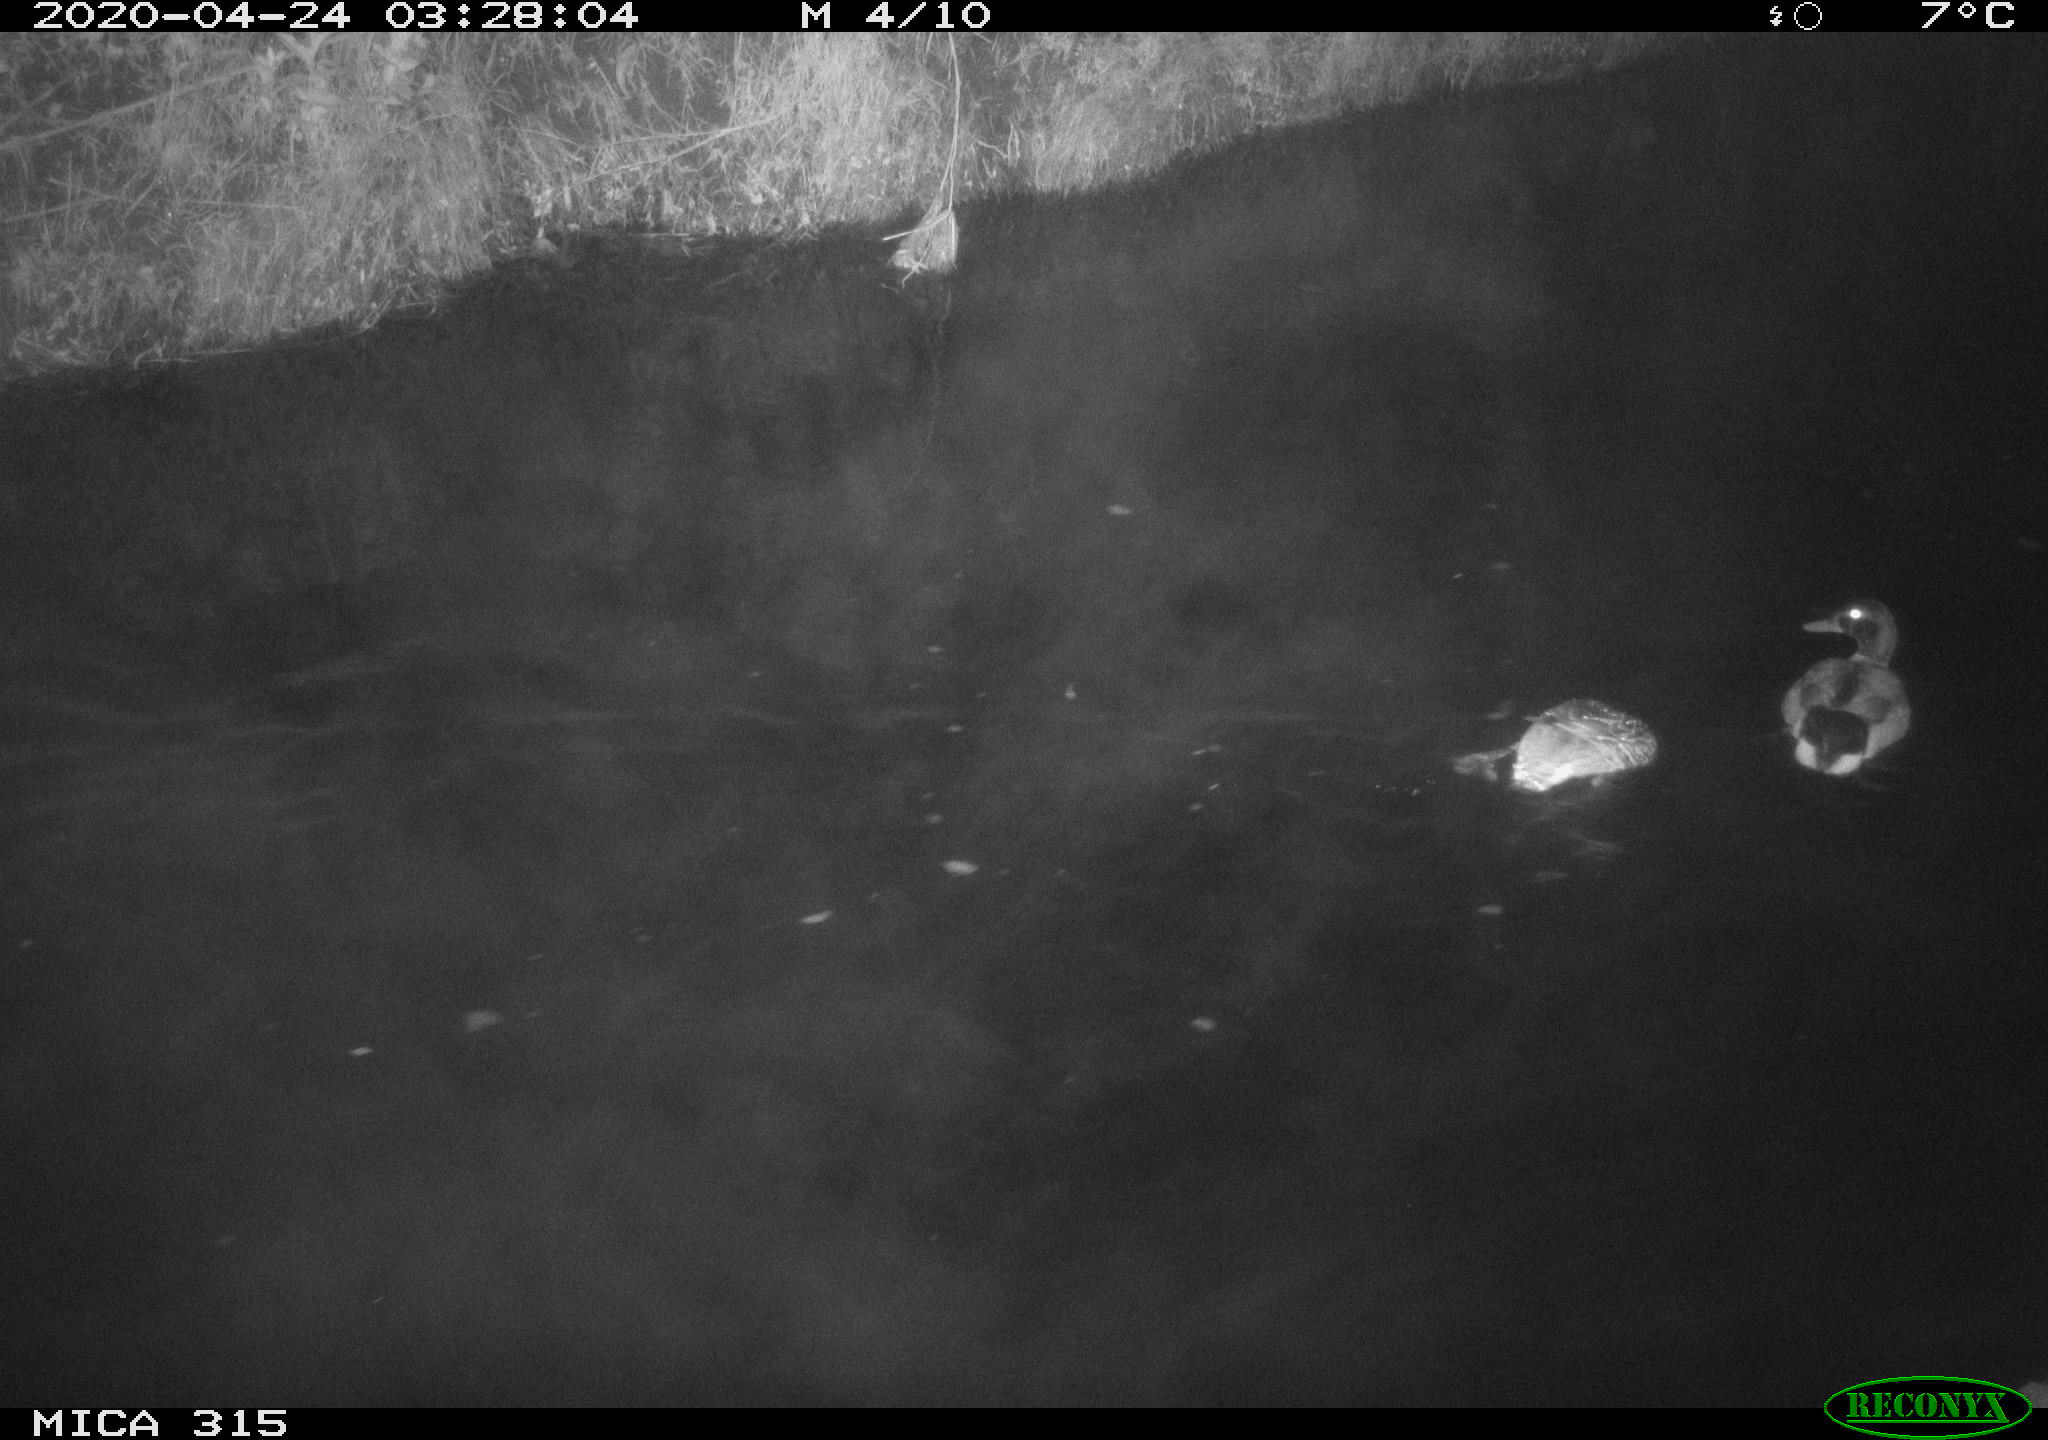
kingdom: Animalia
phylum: Chordata
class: Aves
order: Anseriformes
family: Anatidae
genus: Anas
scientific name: Anas platyrhynchos
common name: Mallard
